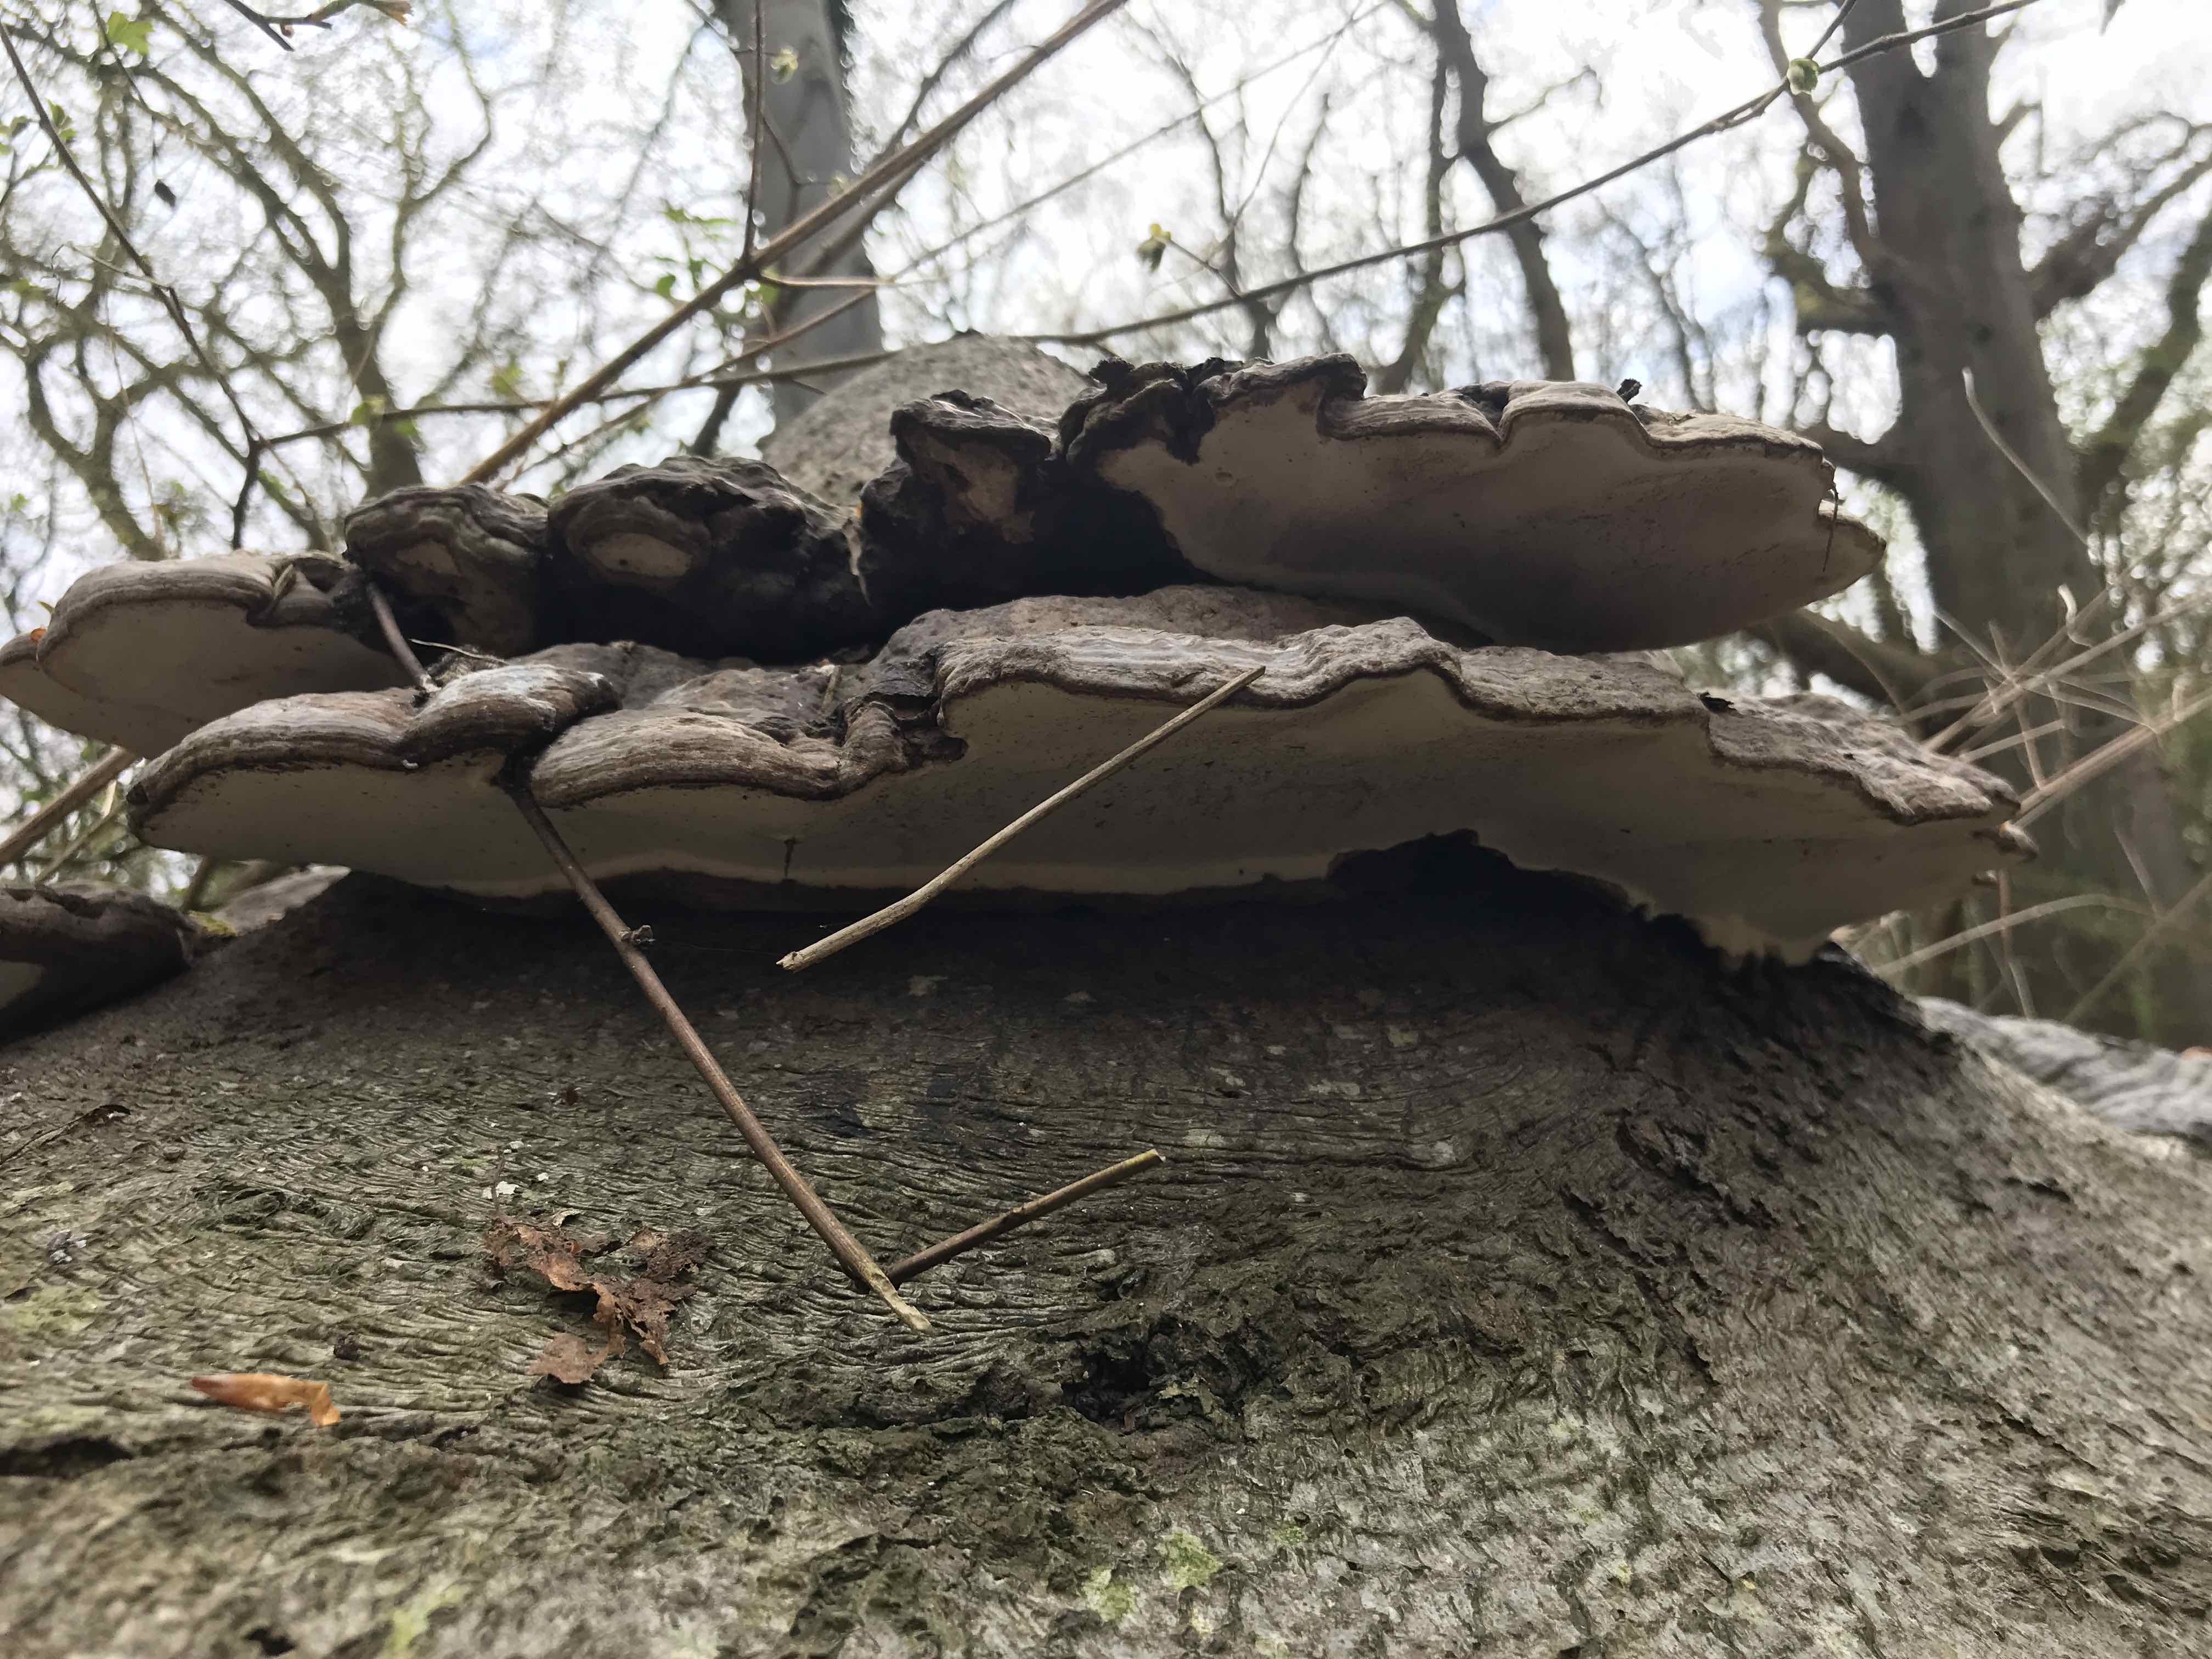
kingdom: Fungi
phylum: Basidiomycota
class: Agaricomycetes
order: Polyporales
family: Polyporaceae
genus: Ganoderma
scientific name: Ganoderma applanatum
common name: flad lakporesvamp
